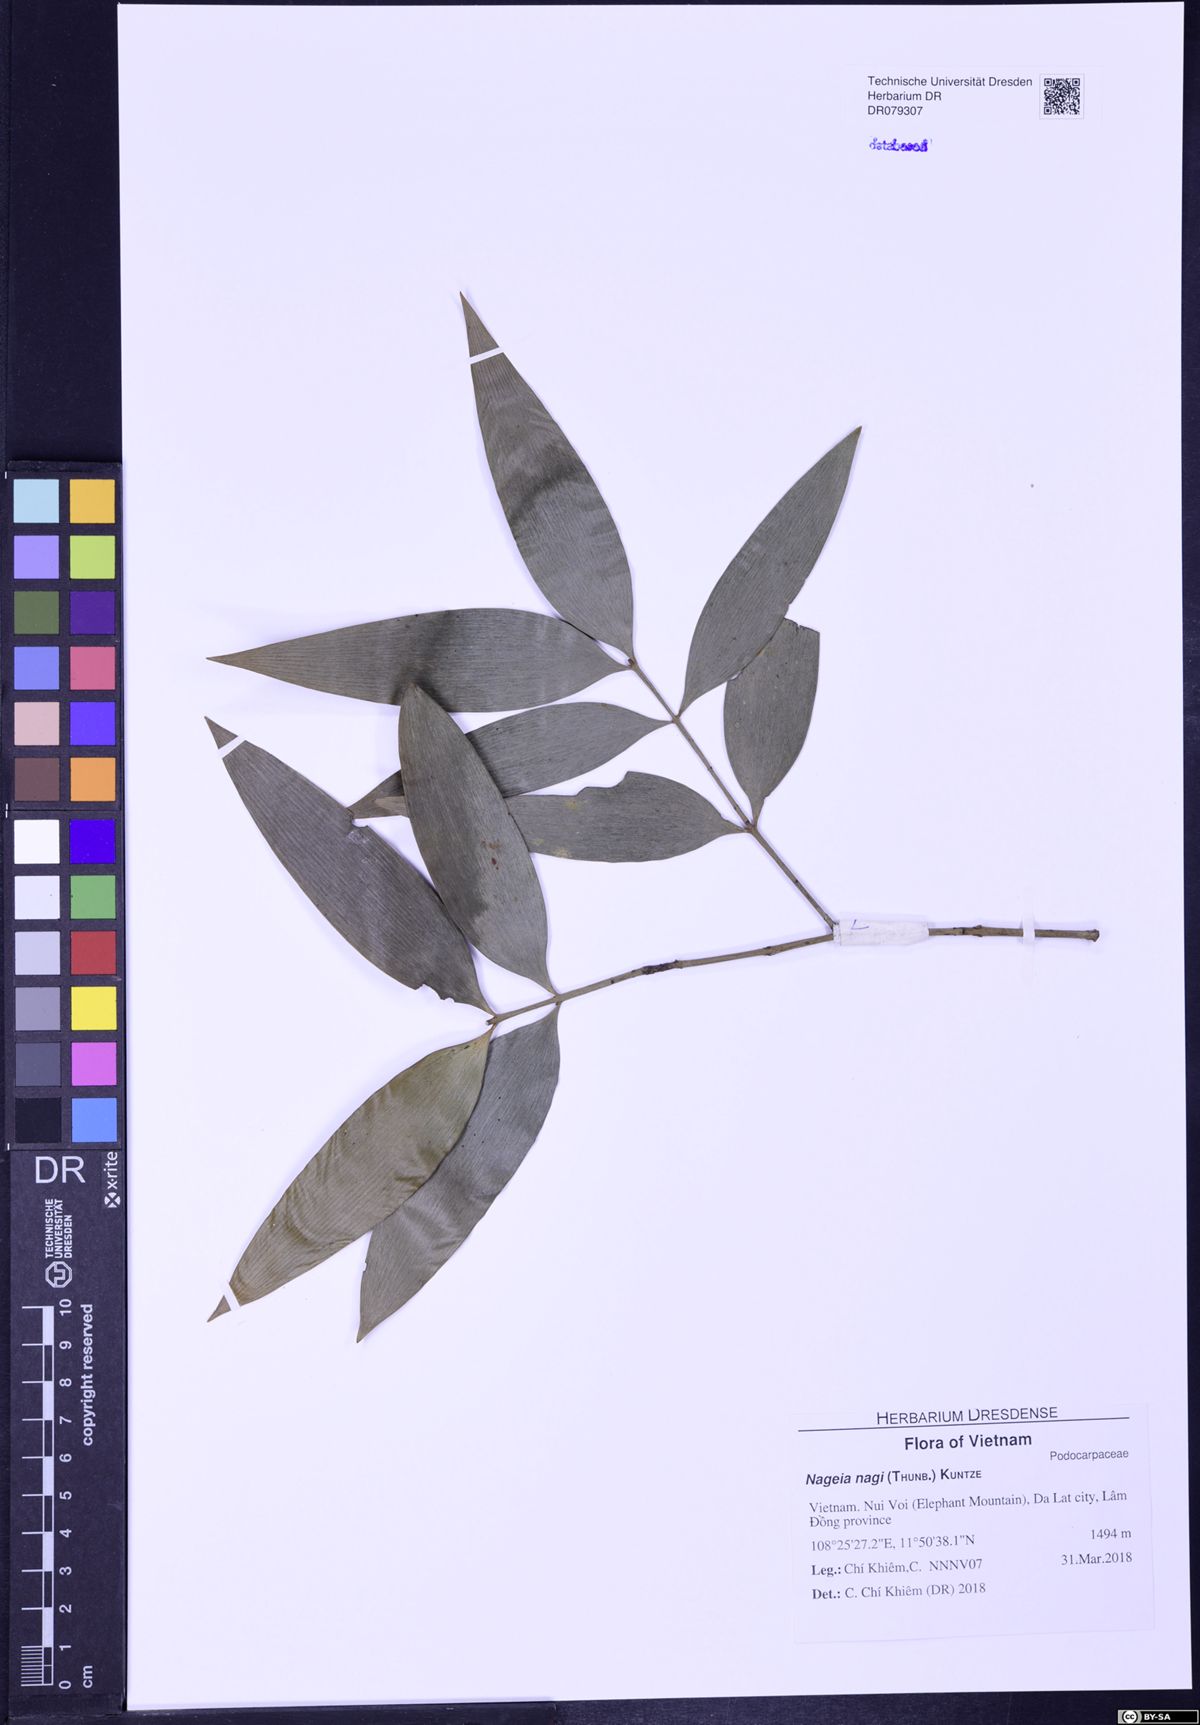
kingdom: Plantae
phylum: Tracheophyta
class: Pinopsida
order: Pinales
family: Podocarpaceae
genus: Nageia
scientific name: Nageia nagi
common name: Kaphal
